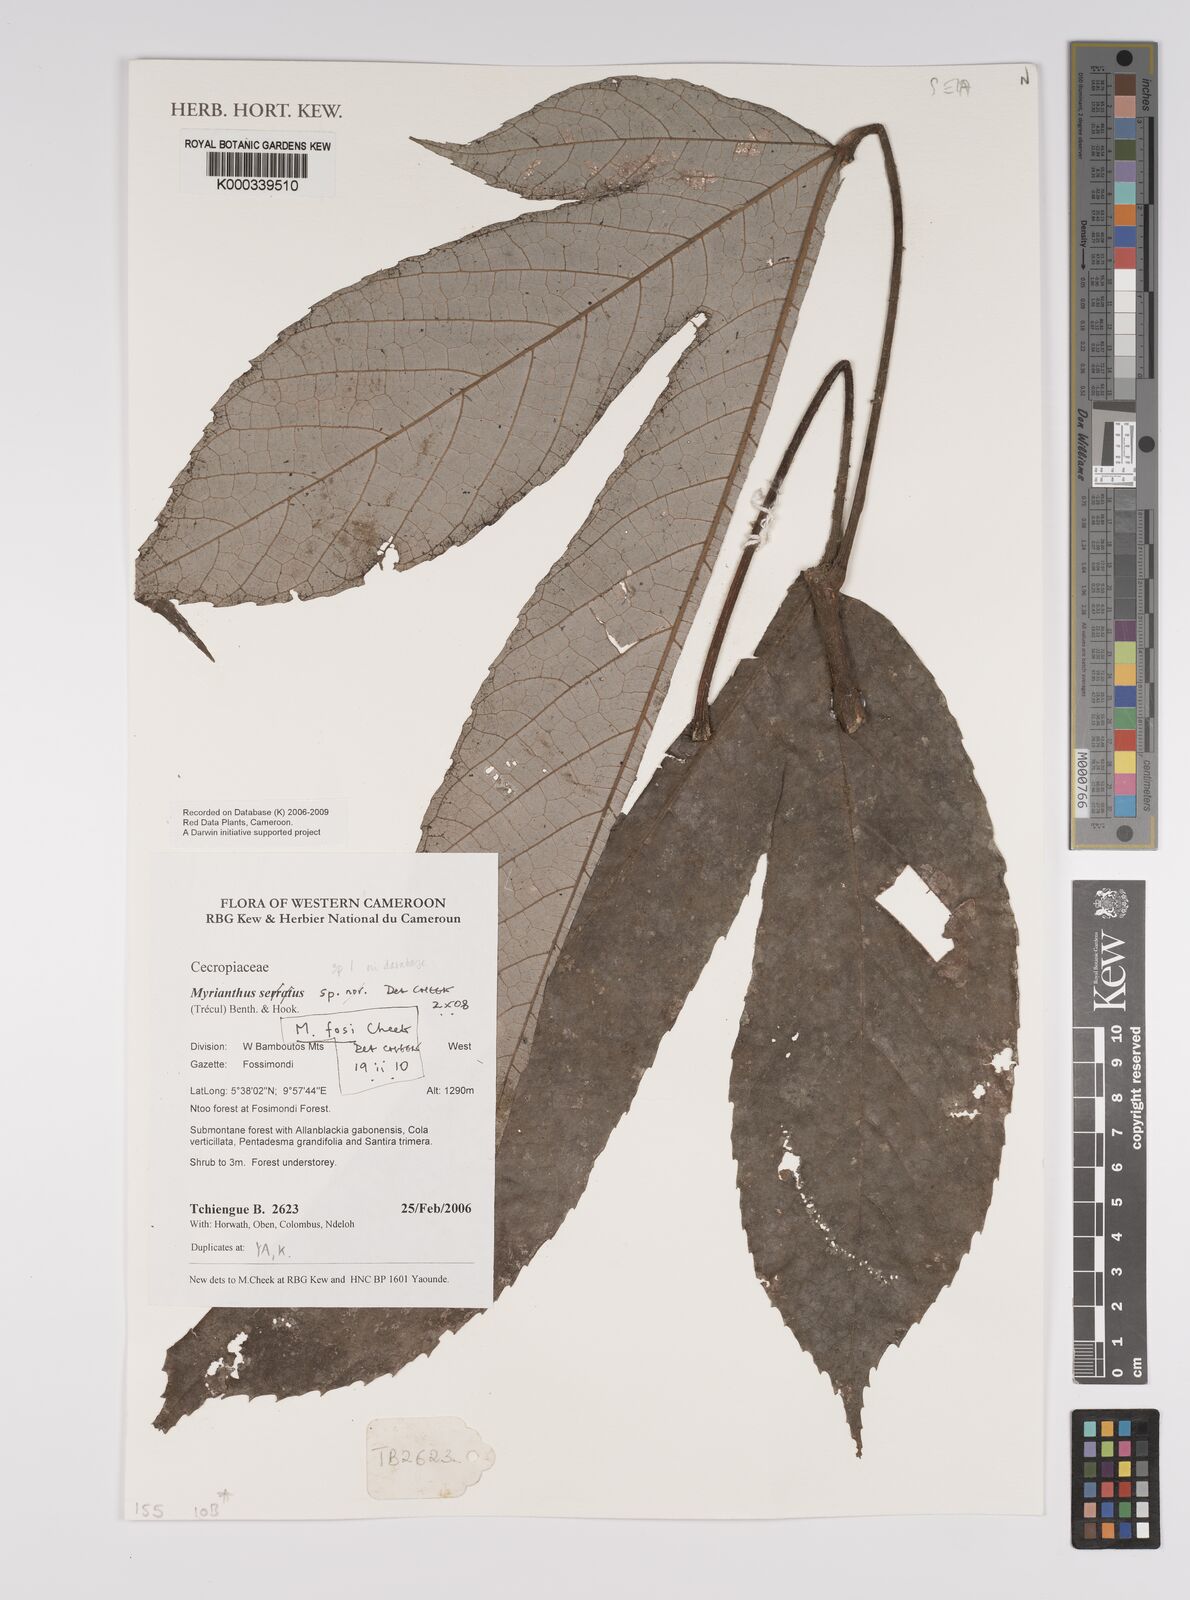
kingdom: Plantae
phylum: Tracheophyta
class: Magnoliopsida
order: Rosales
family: Urticaceae
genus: Myrianthus
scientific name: Myrianthus fosi
